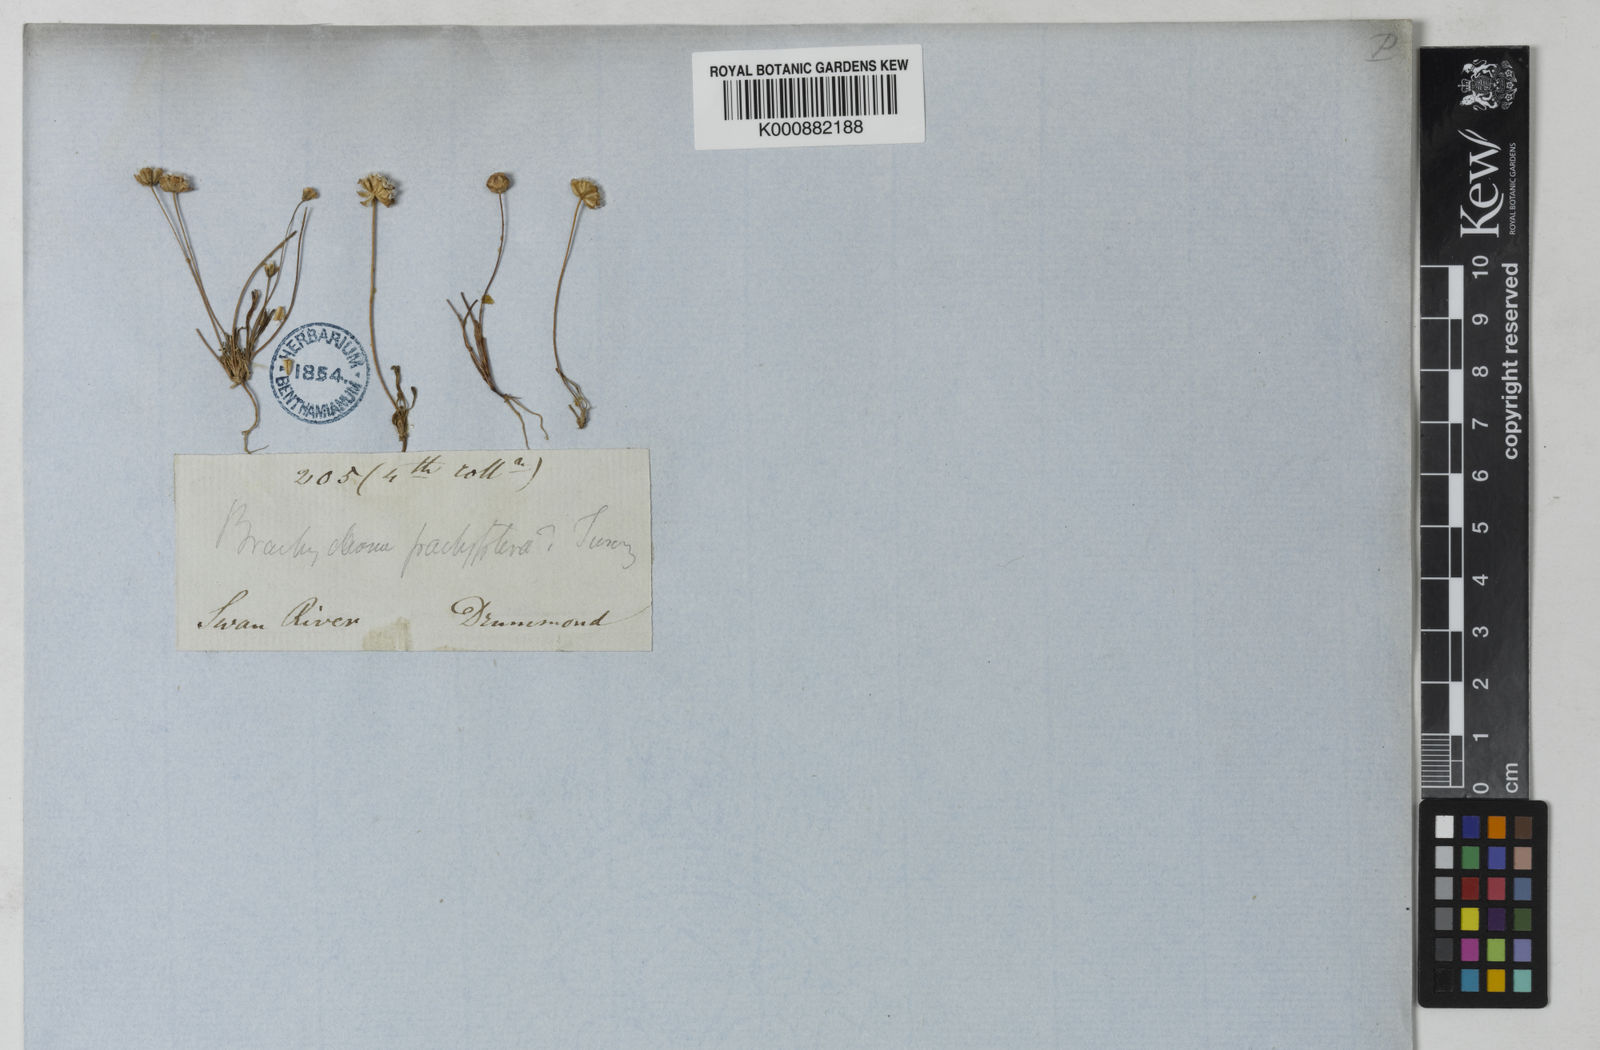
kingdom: Plantae
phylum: Tracheophyta
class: Magnoliopsida
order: Asterales
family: Asteraceae
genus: Brachyscome
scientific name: Brachyscome lineariloba
